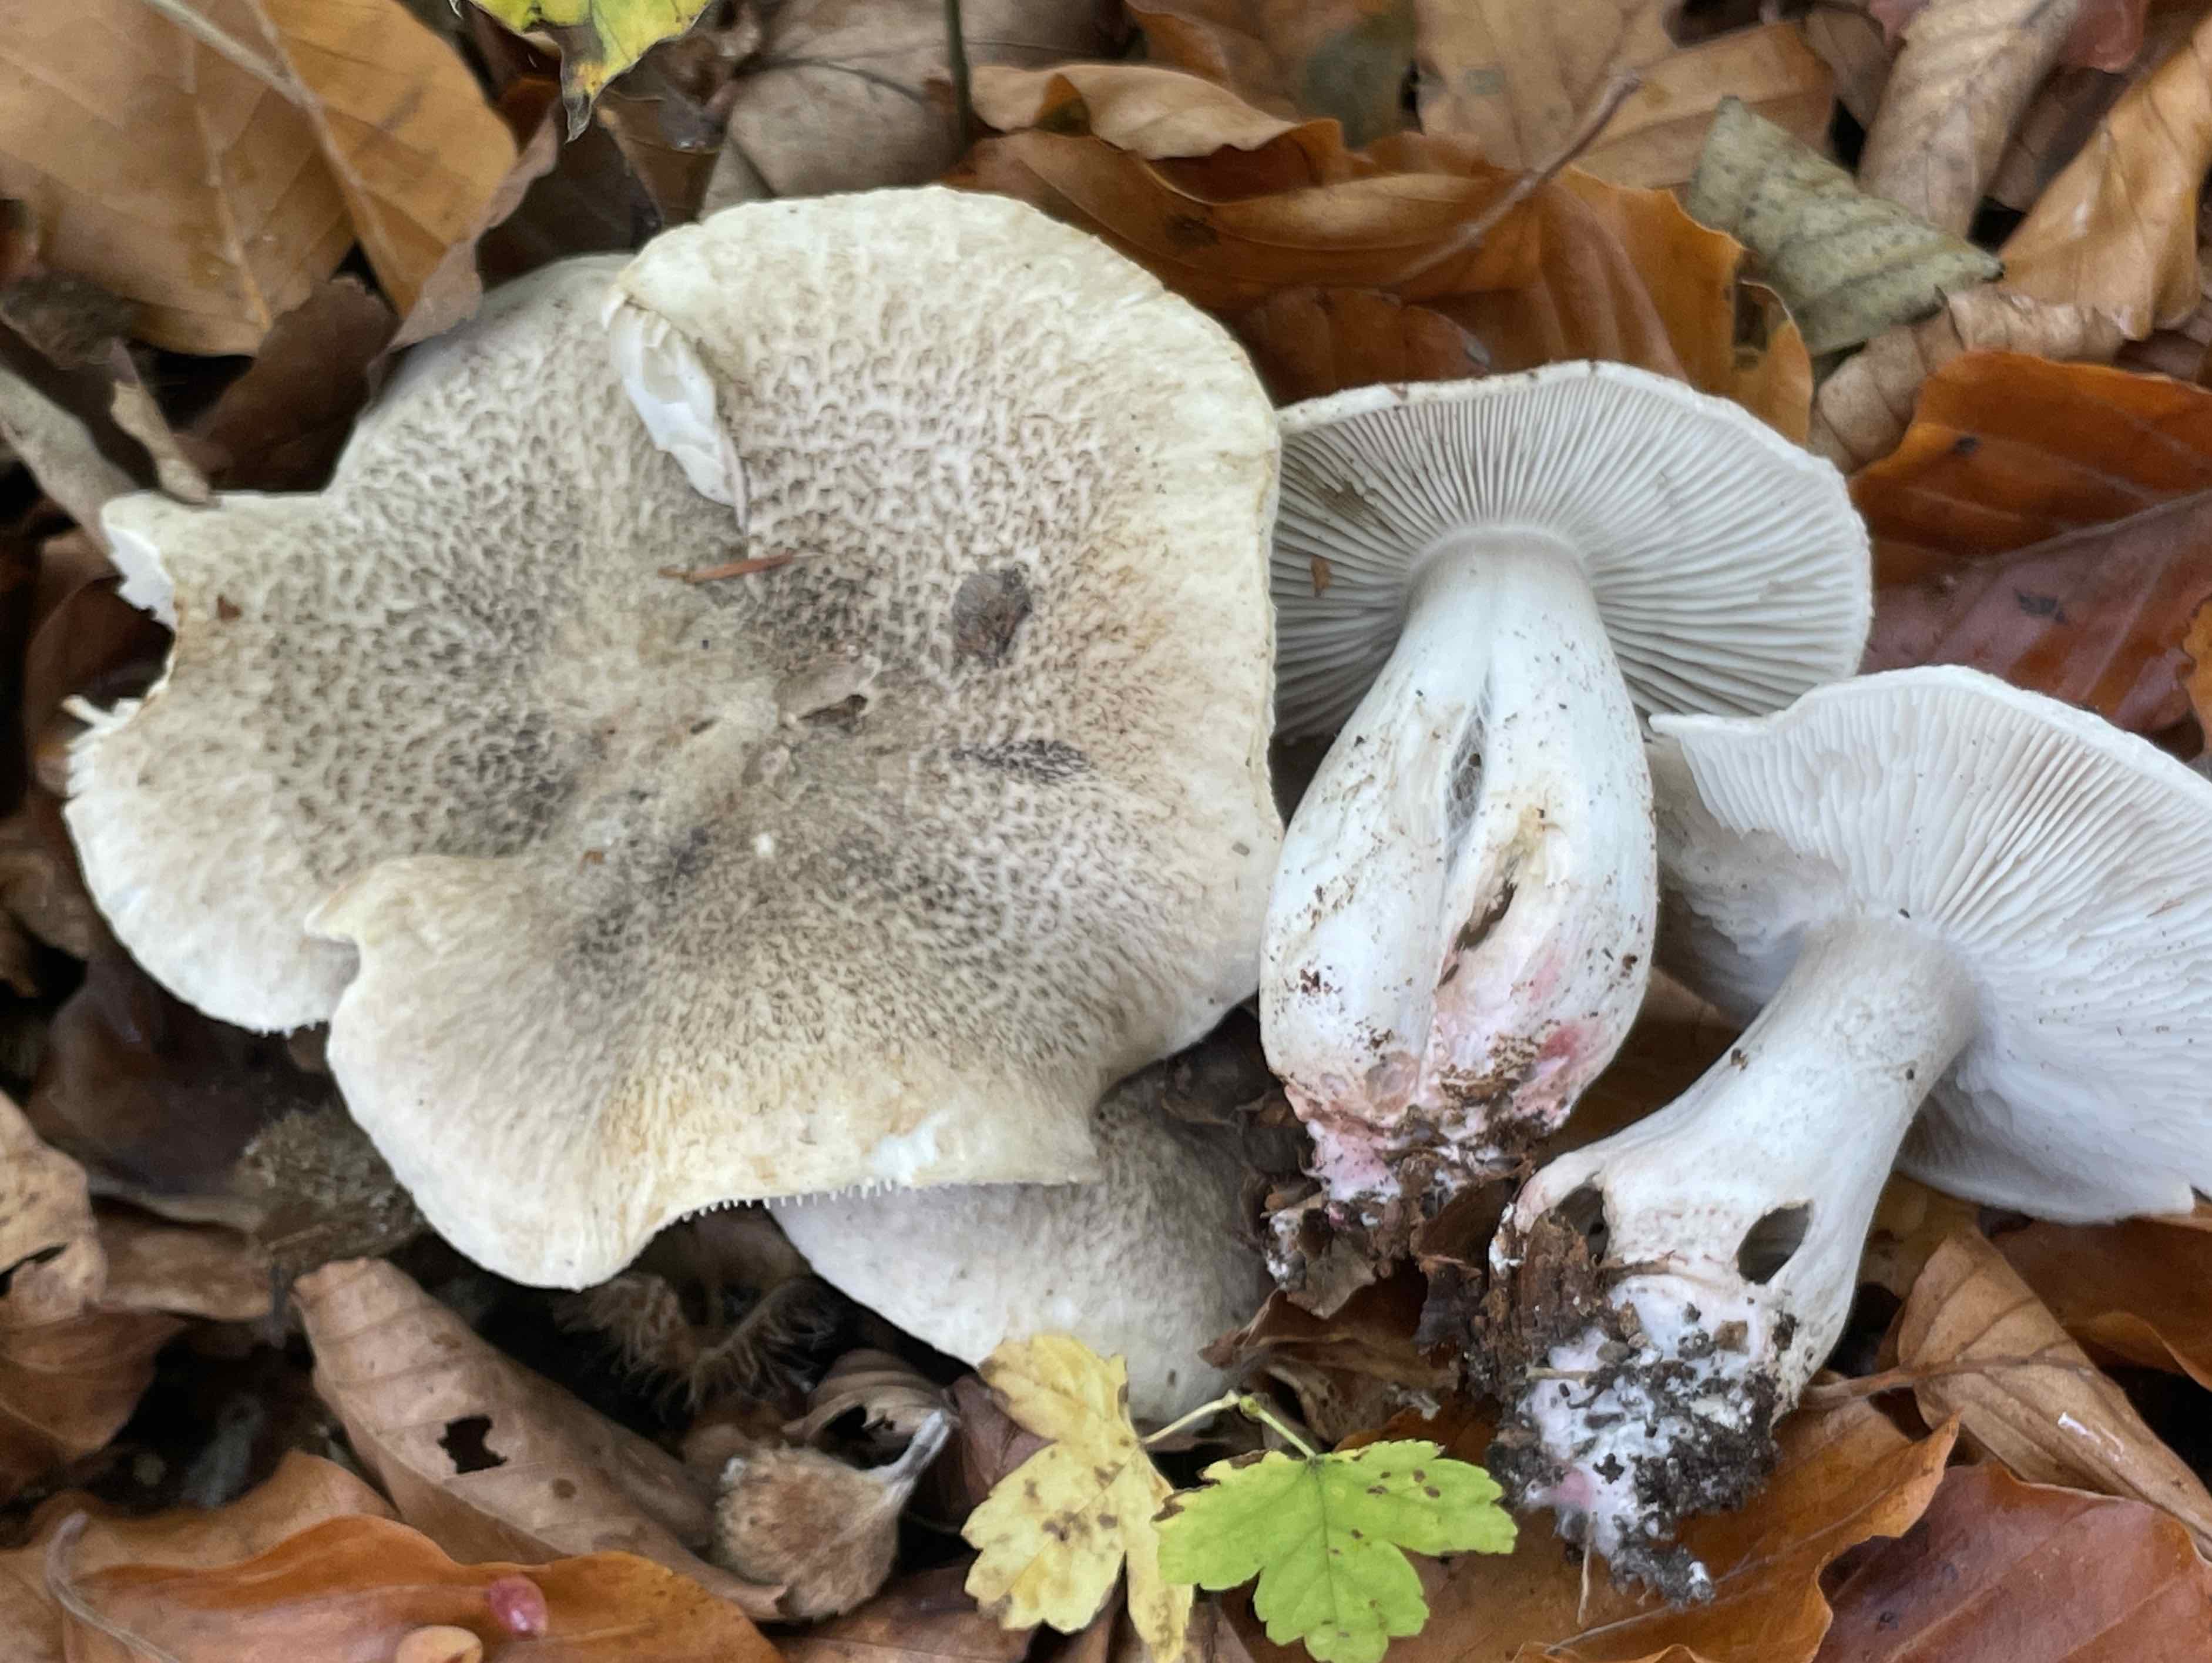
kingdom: Fungi
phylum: Basidiomycota
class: Agaricomycetes
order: Agaricales
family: Tricholomataceae
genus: Tricholoma
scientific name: Tricholoma basirubens
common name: rødfodet ridderhat
